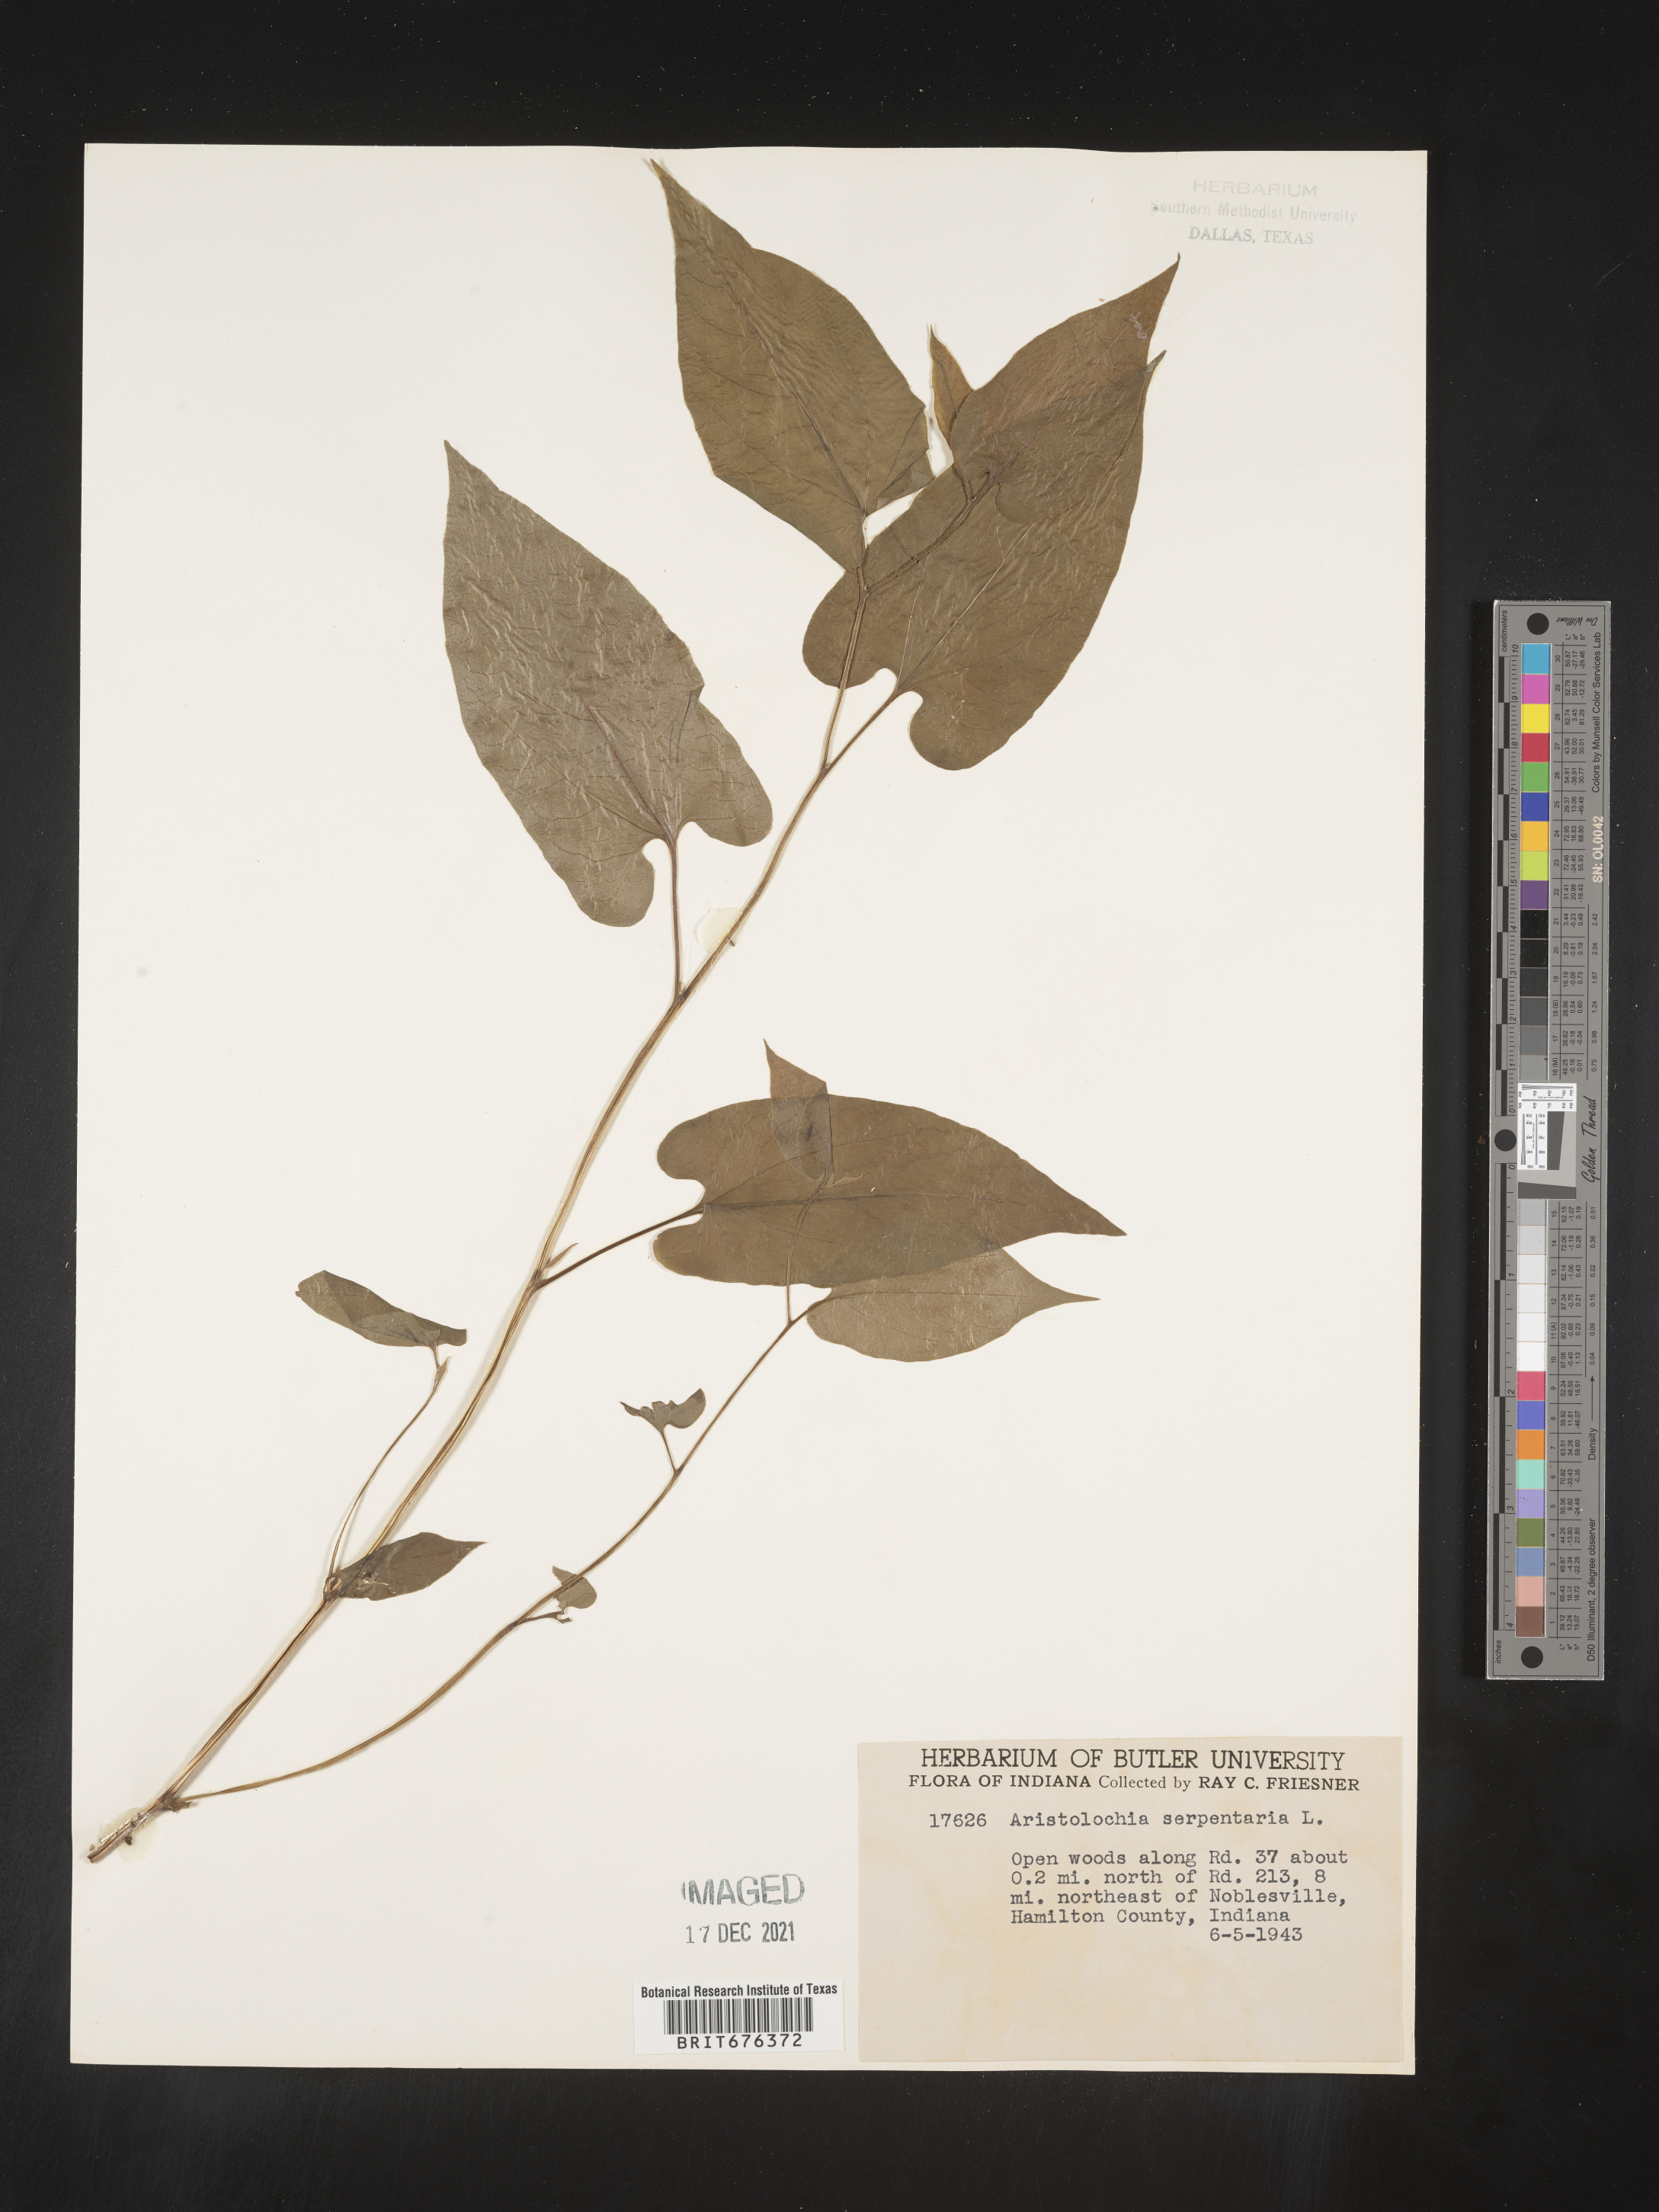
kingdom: Plantae
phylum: Tracheophyta
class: Magnoliopsida
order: Piperales
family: Aristolochiaceae
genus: Aristolochia
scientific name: Aristolochia
